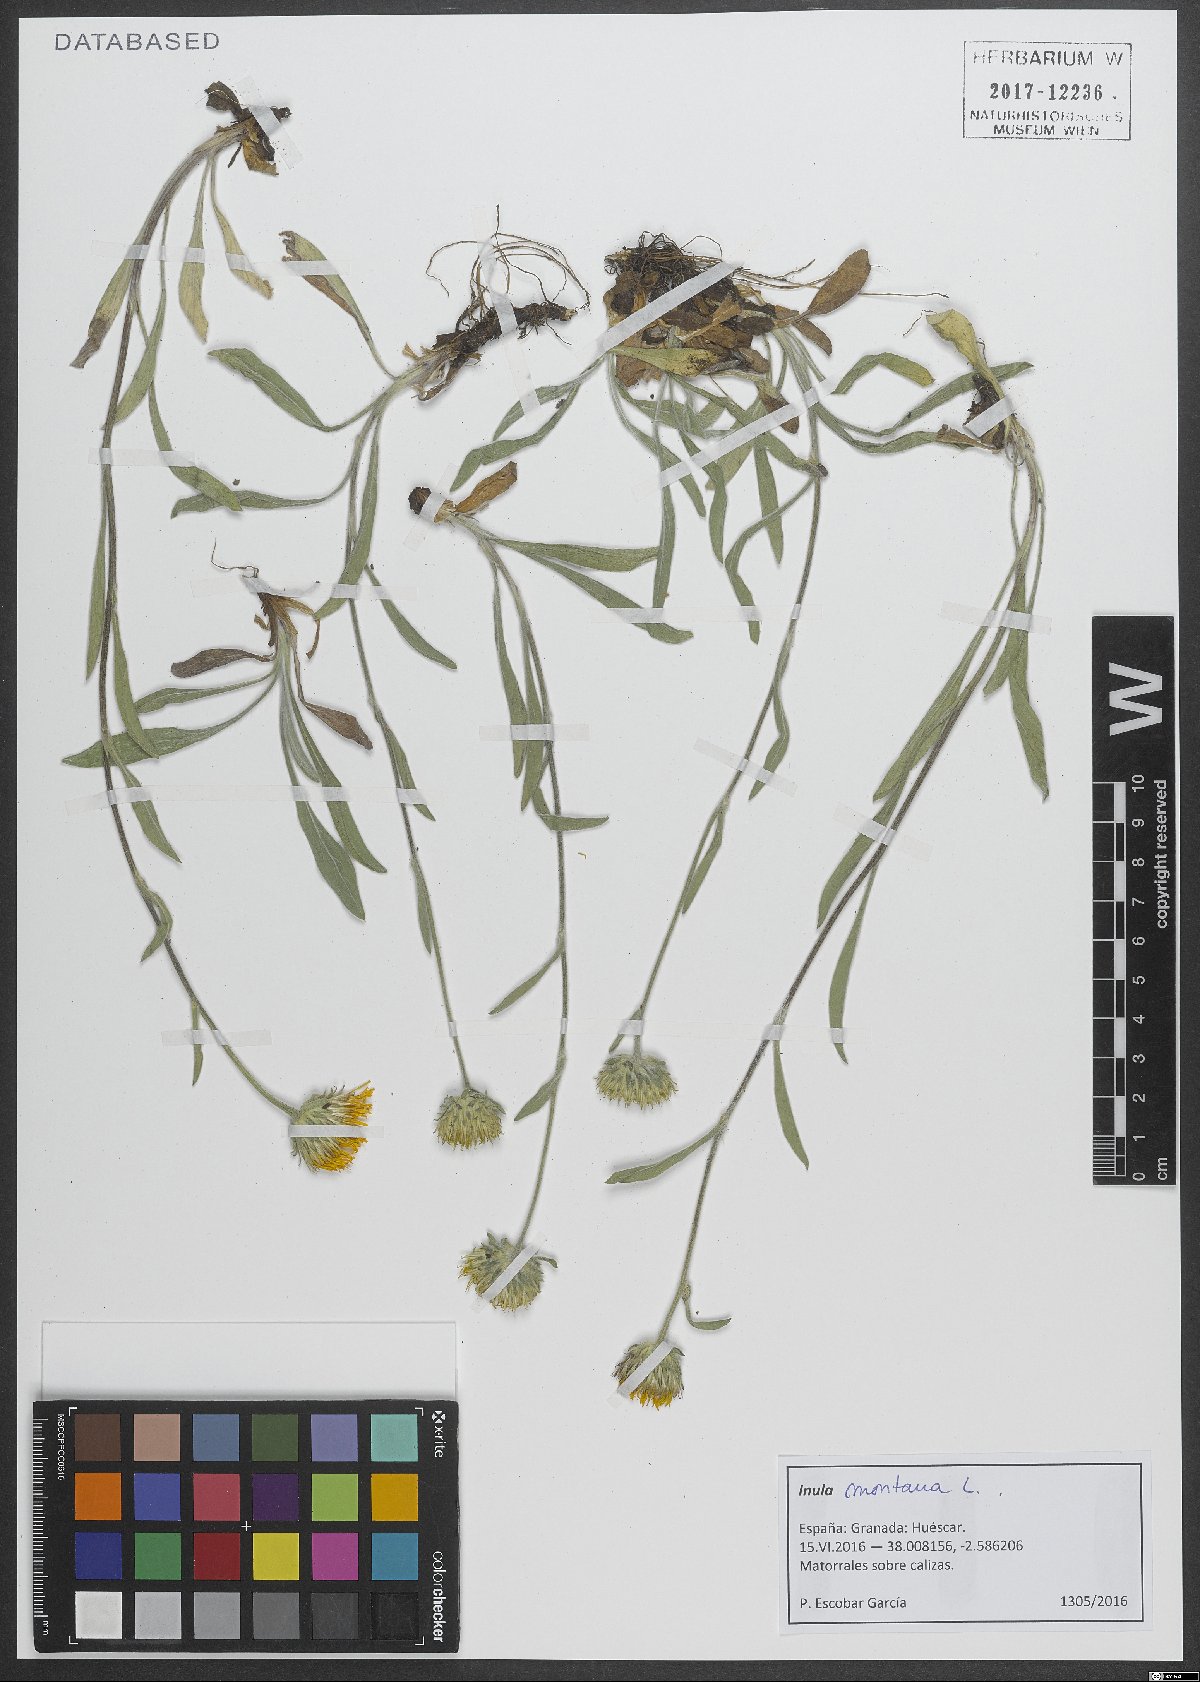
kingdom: Plantae
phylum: Tracheophyta
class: Magnoliopsida
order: Asterales
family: Asteraceae
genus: Pentanema
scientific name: Pentanema montanum
